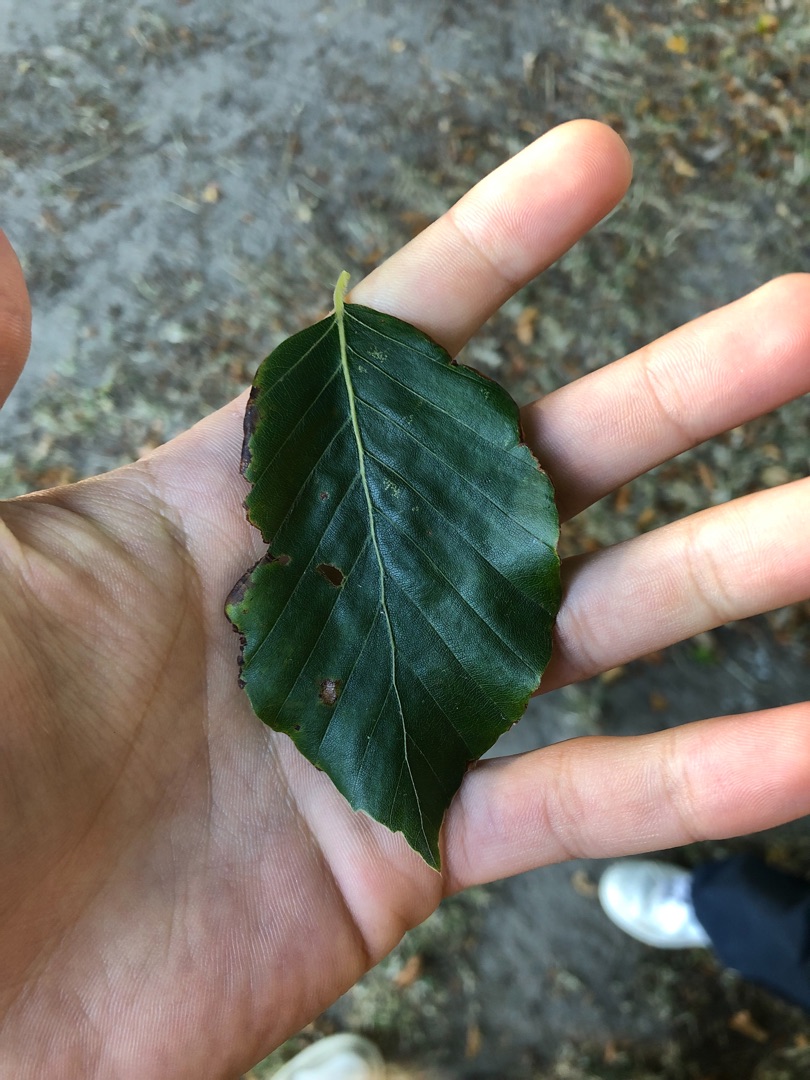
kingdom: Plantae
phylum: Tracheophyta
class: Magnoliopsida
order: Fagales
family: Fagaceae
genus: Fagus
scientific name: Fagus sylvatica
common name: Bøg
